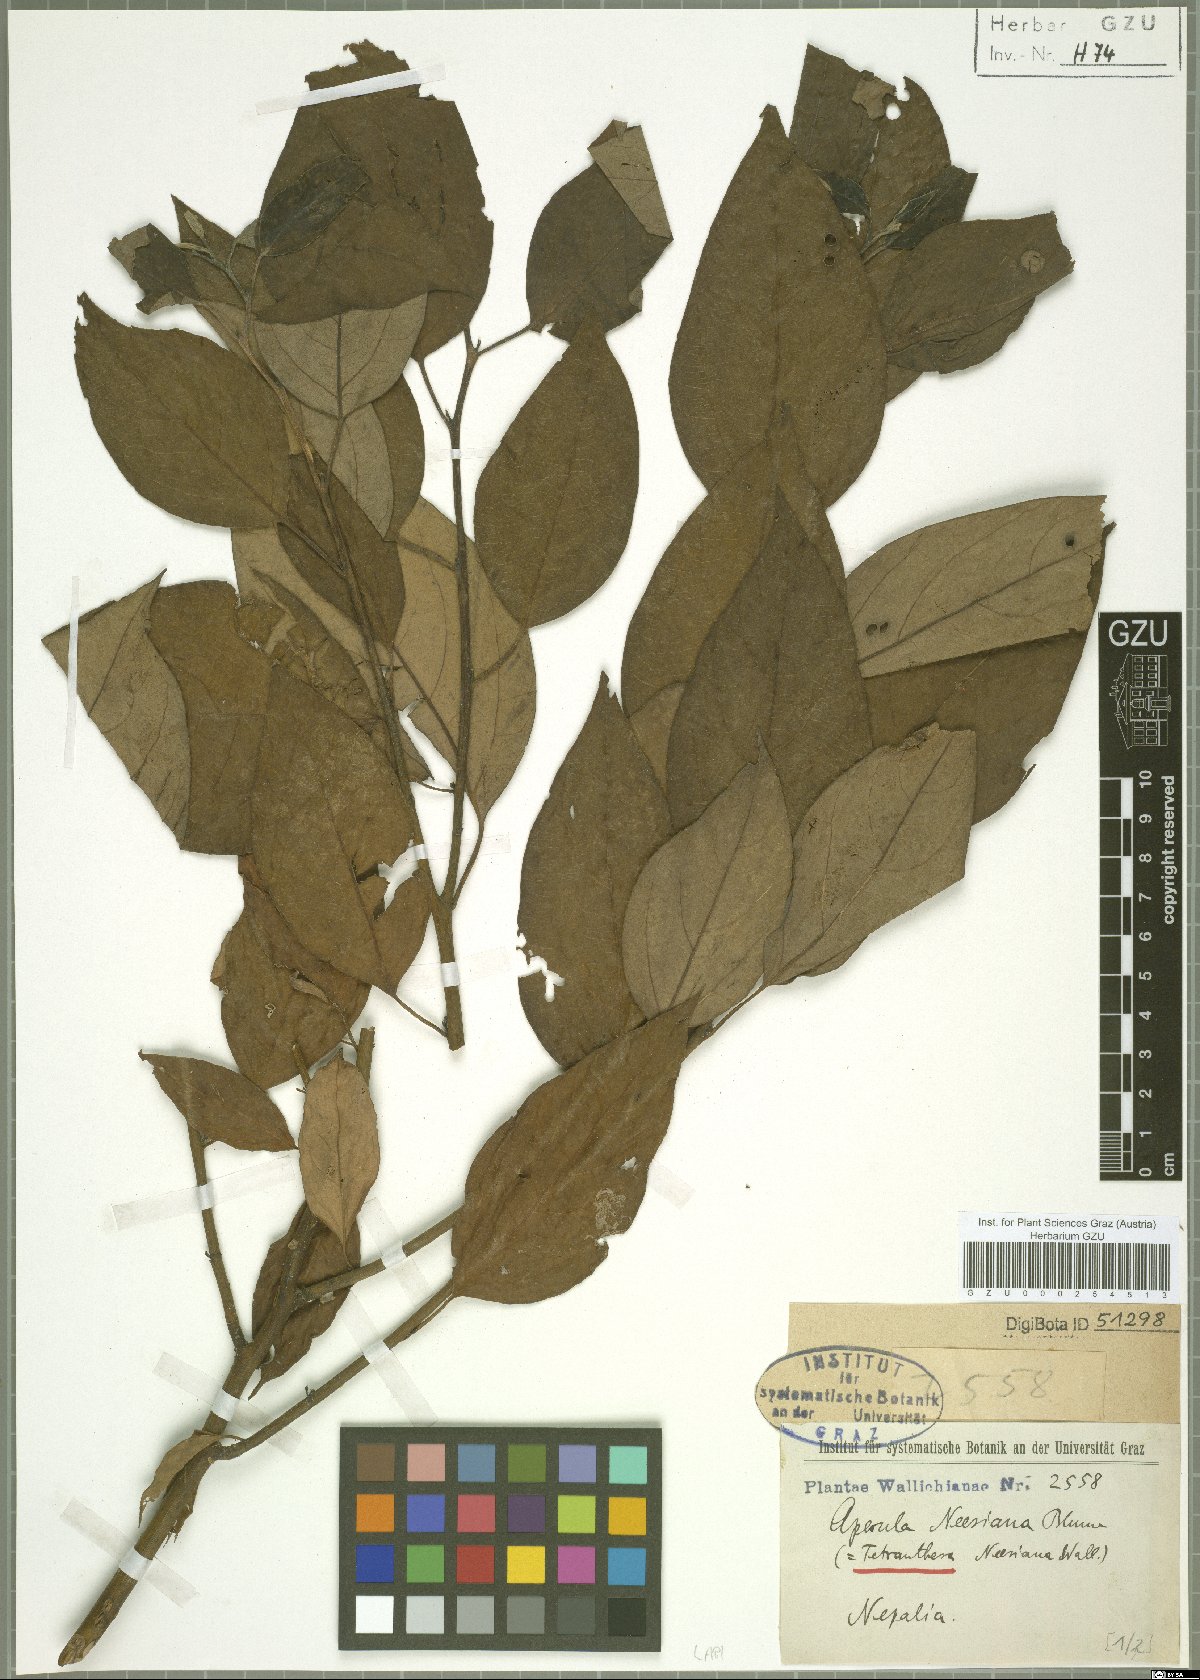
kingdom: Plantae
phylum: Tracheophyta
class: Magnoliopsida
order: Laurales
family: Lauraceae
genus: Lindera
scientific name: Lindera neesiana
